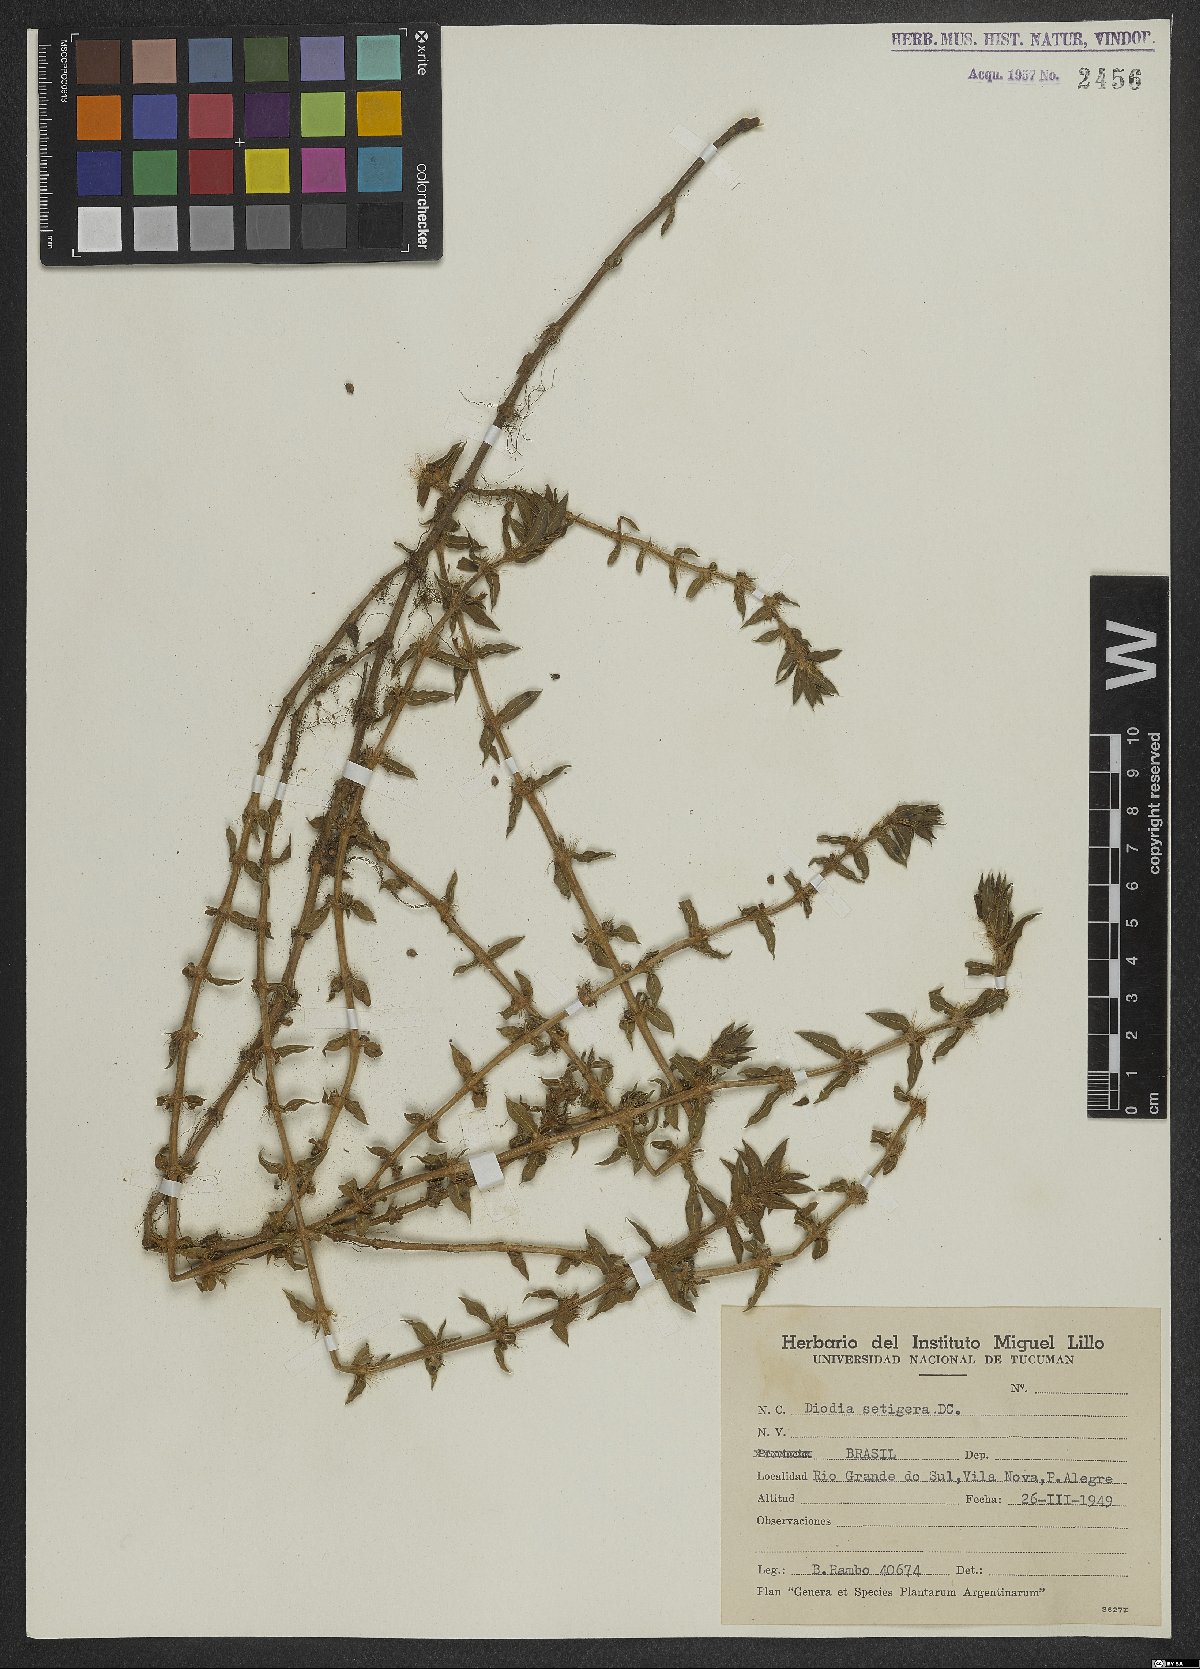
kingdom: Plantae
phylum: Tracheophyta
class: Magnoliopsida
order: Gentianales
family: Rubiaceae
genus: Hexasepalum
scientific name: Hexasepalum apiculatum
